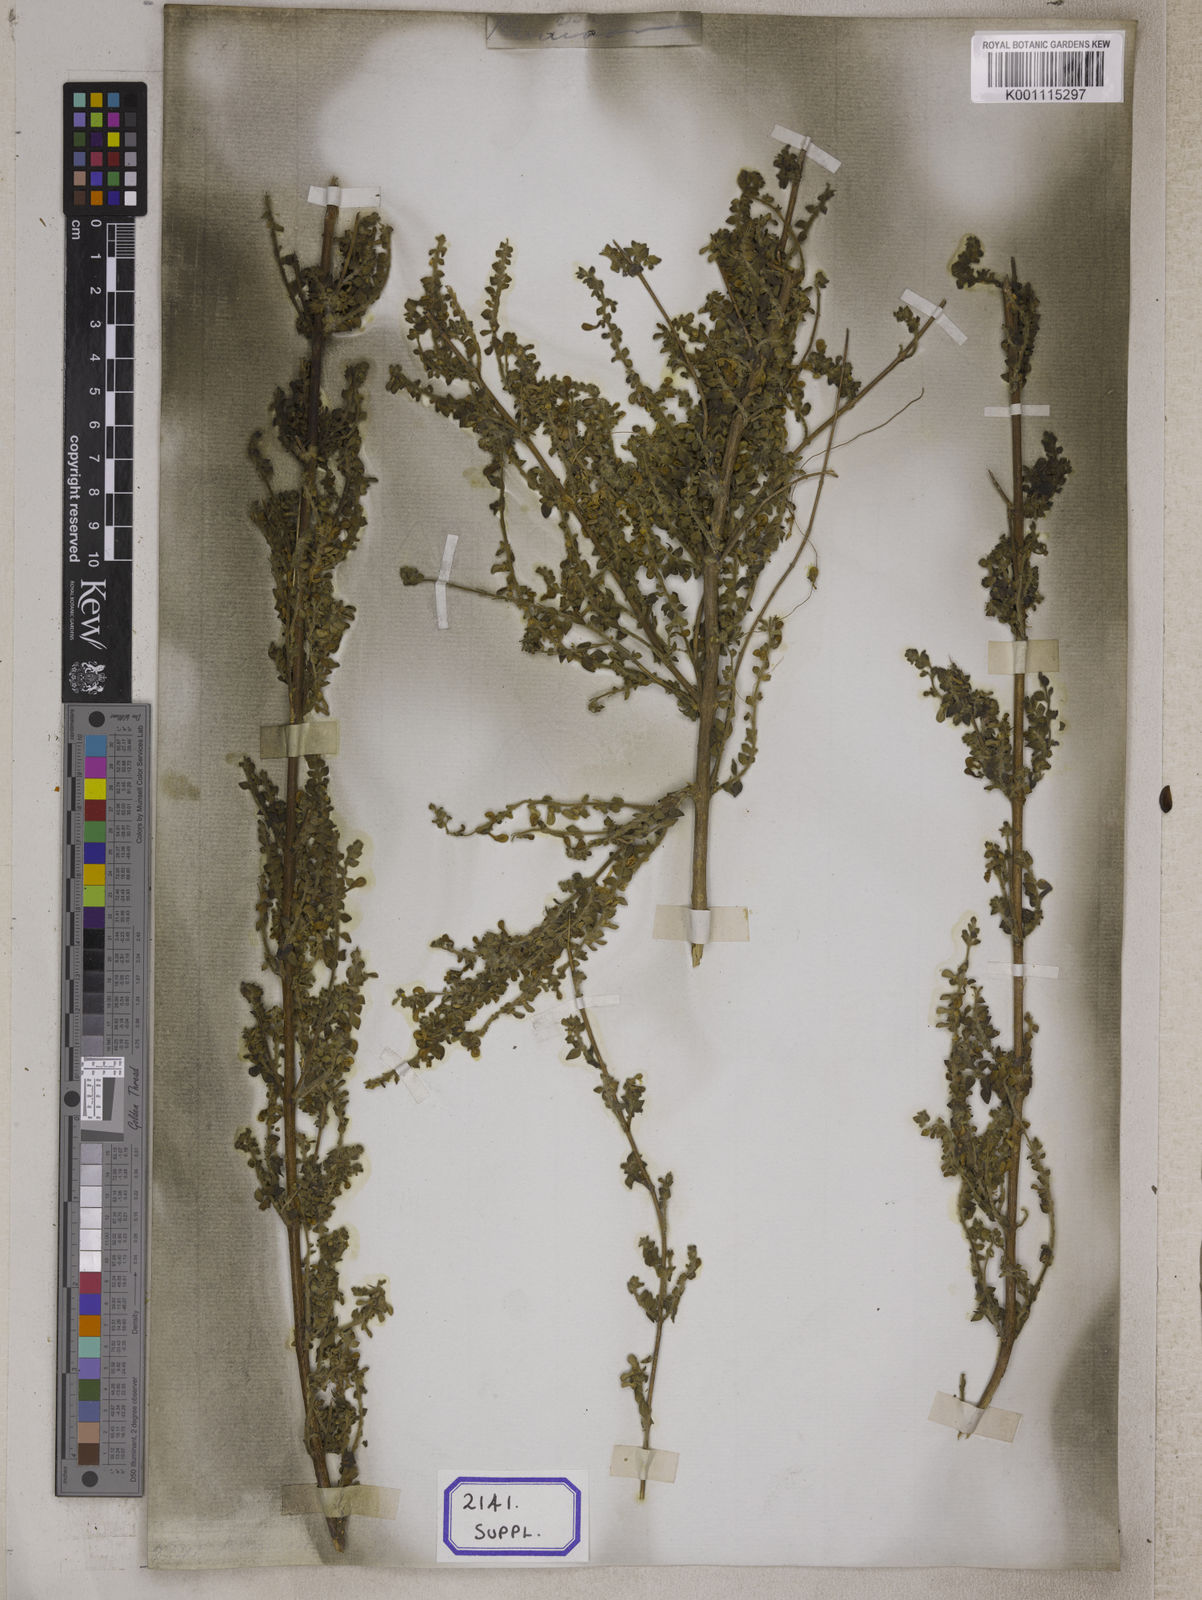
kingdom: Plantae
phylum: Tracheophyta
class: Magnoliopsida
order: Lamiales
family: Lamiaceae
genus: Scutellaria
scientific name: Scutellaria
